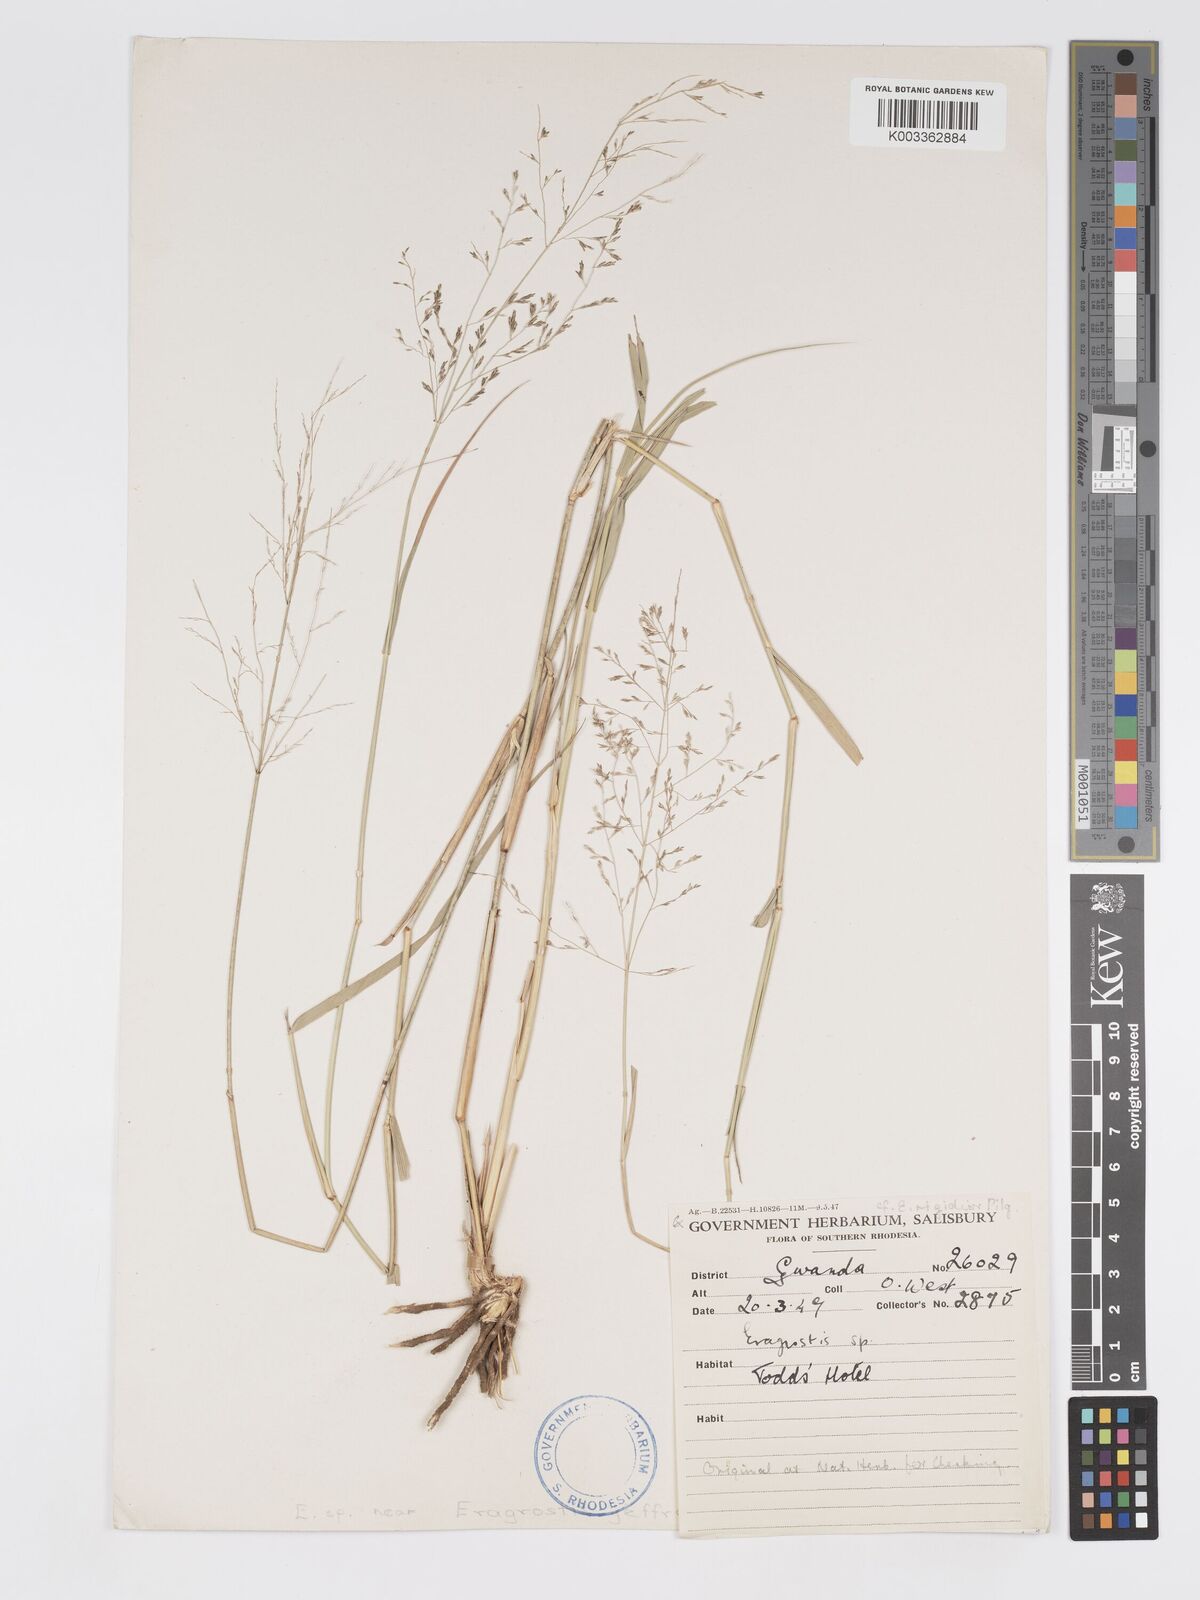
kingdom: Plantae
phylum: Tracheophyta
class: Liliopsida
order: Poales
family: Poaceae
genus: Eragrostis
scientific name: Eragrostis cylindriflora
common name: Cylinderflower lovegrass
